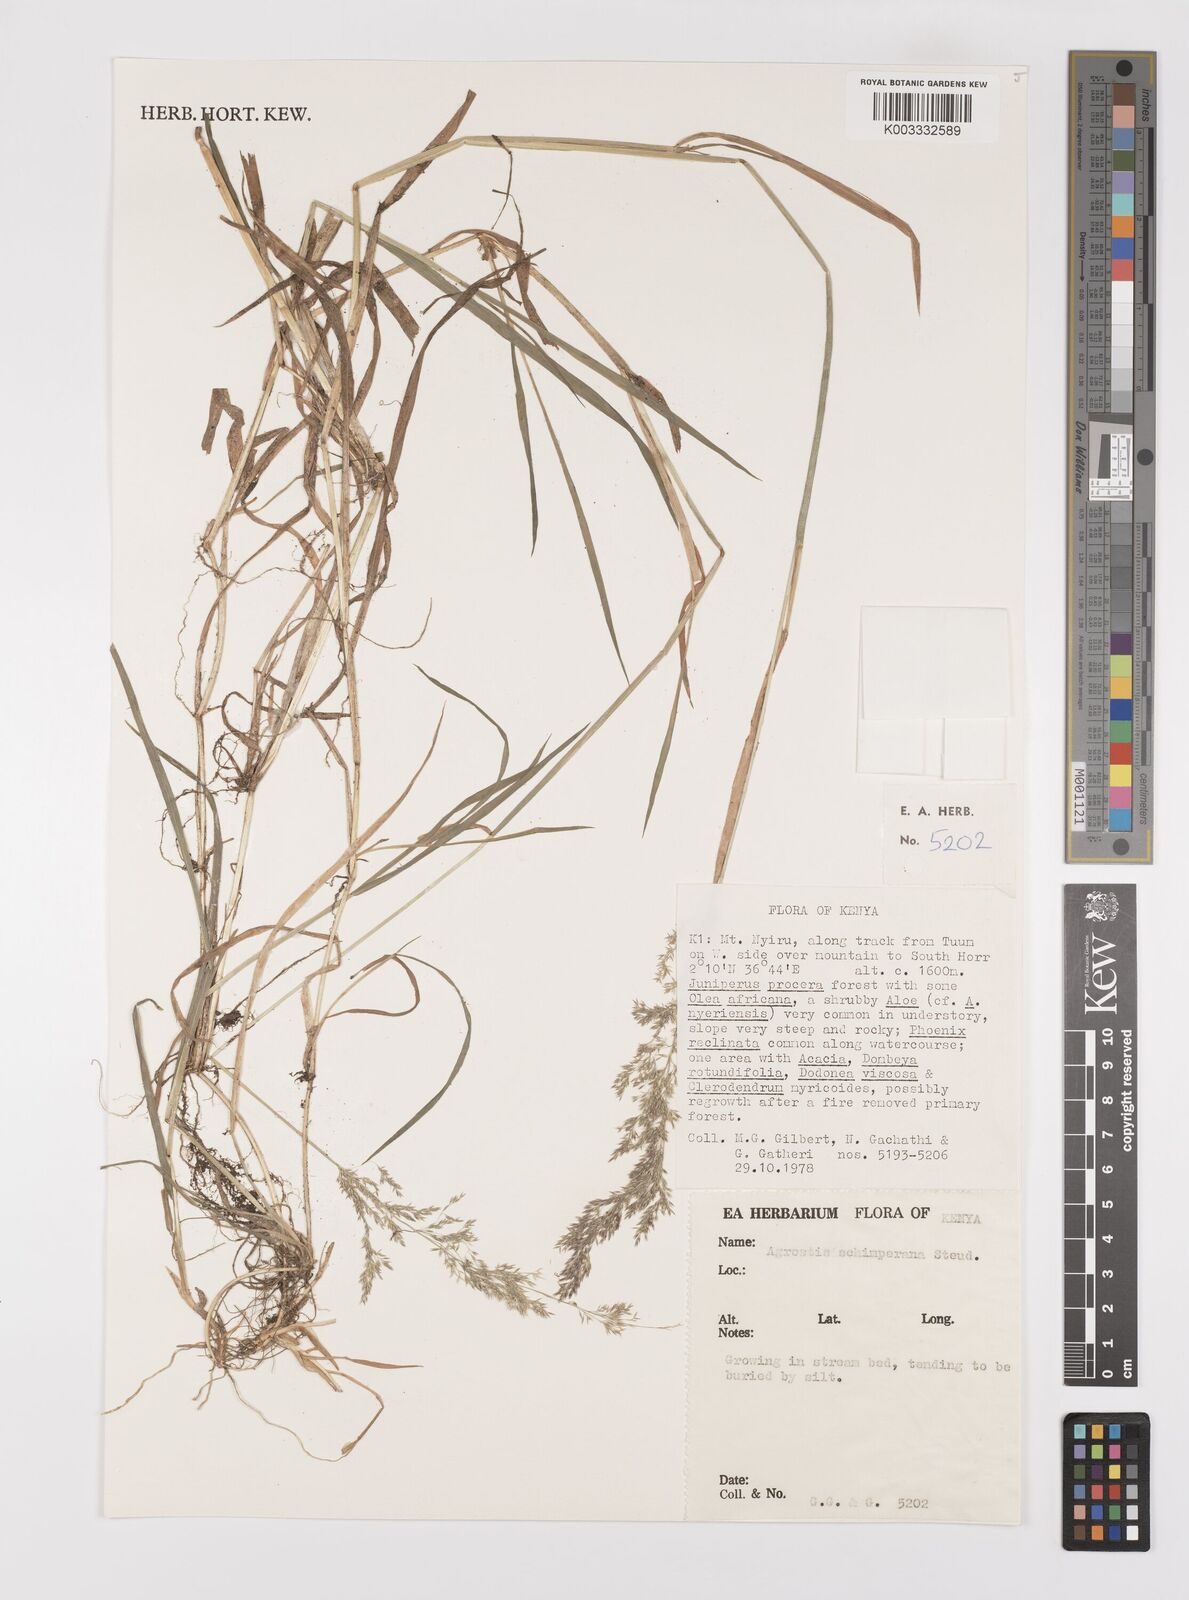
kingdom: Plantae
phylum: Tracheophyta
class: Liliopsida
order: Poales
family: Poaceae
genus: Polypogon
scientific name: Polypogon schimperianus
